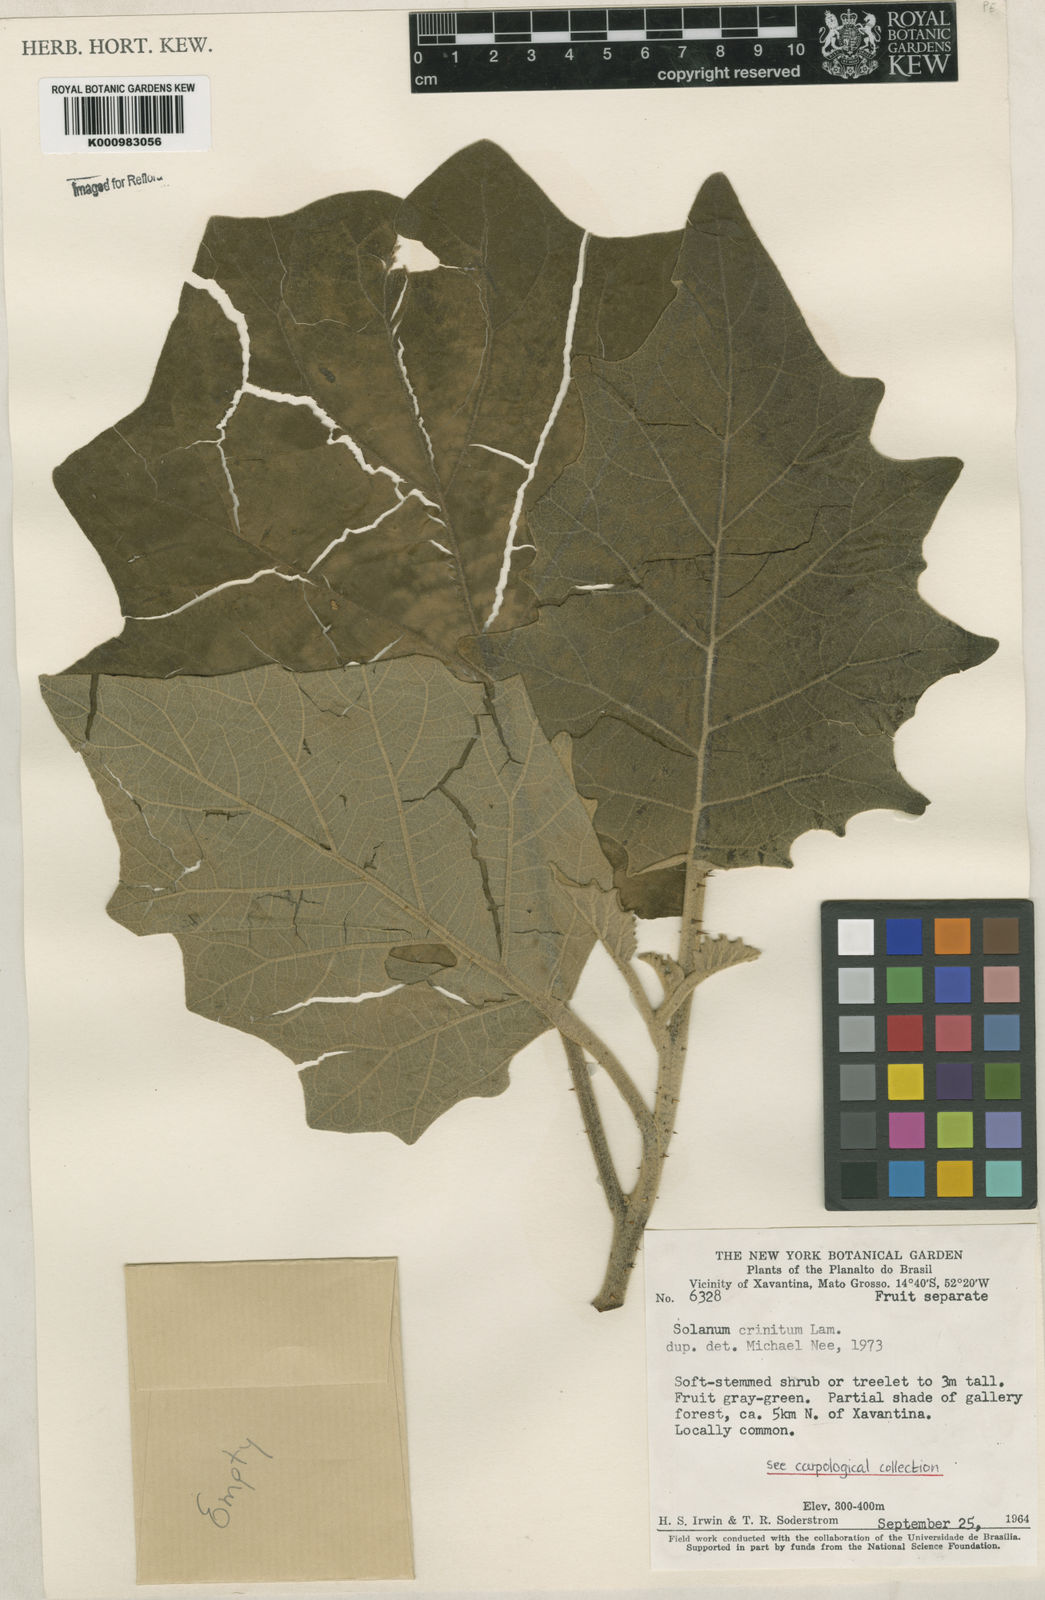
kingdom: Plantae
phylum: Tracheophyta
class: Magnoliopsida
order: Solanales
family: Solanaceae
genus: Solanum
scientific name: Solanum crinitum
